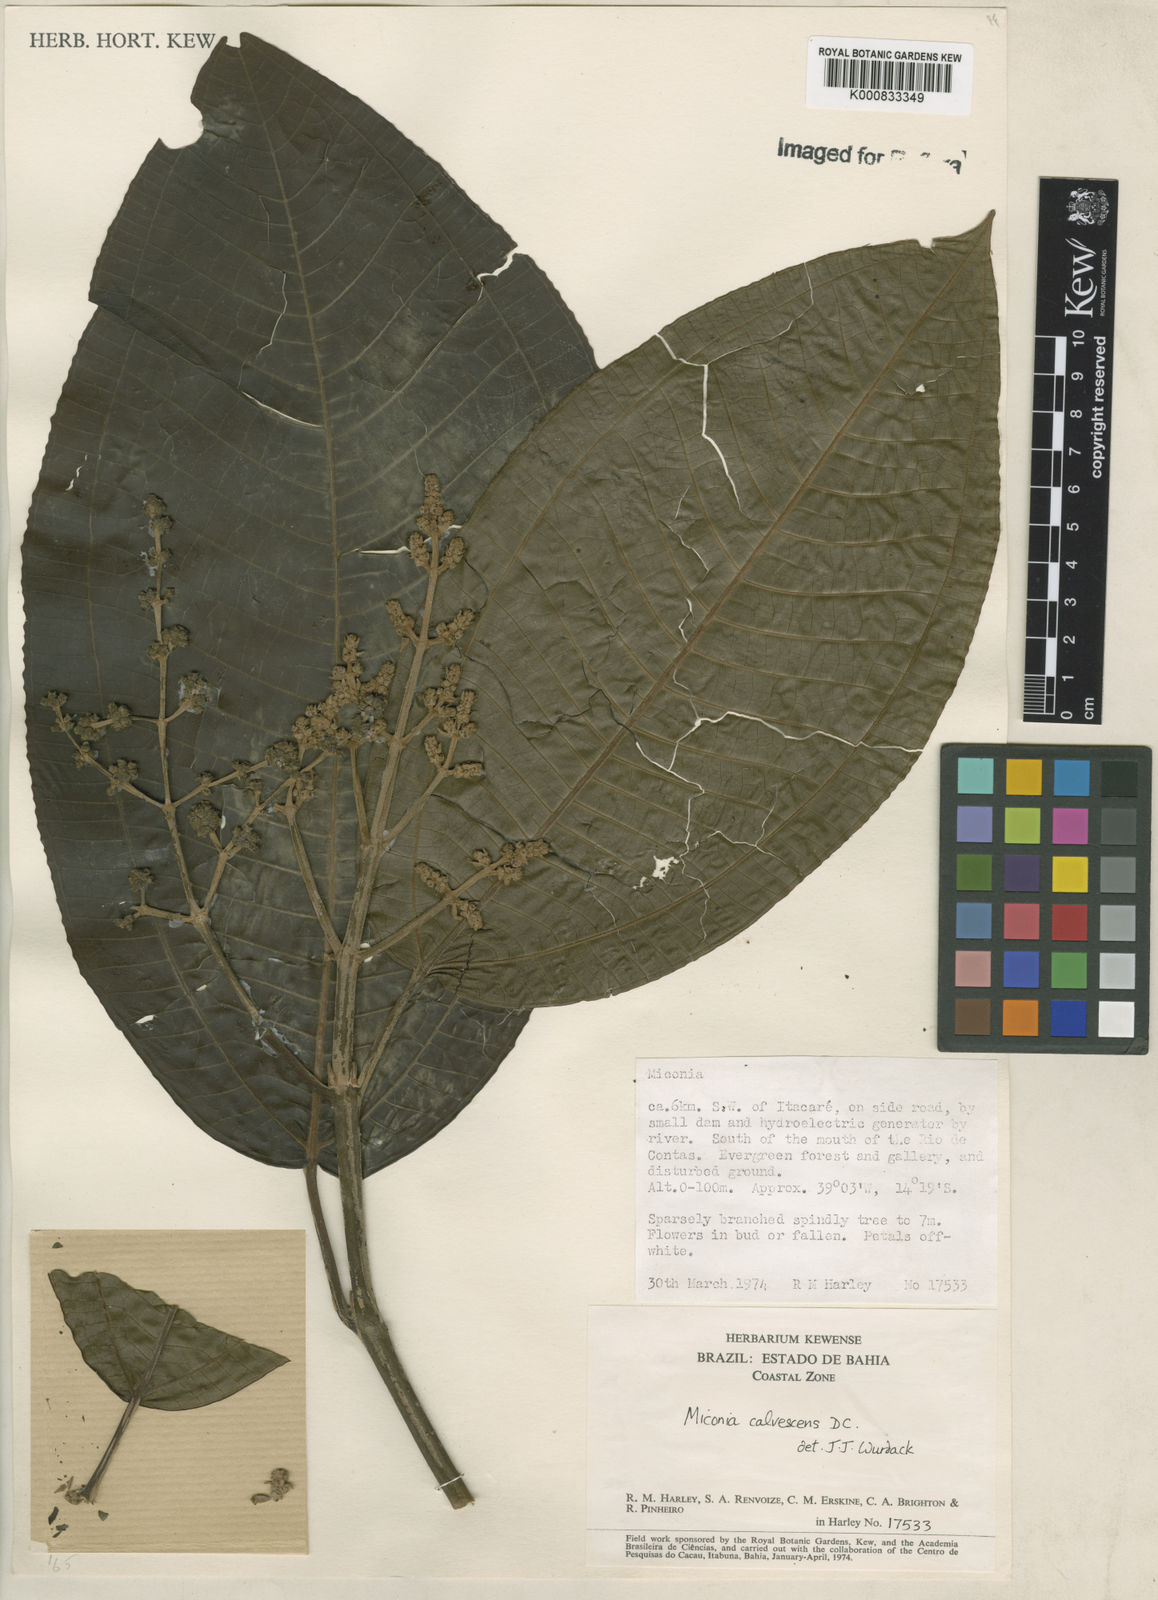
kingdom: Plantae
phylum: Tracheophyta
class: Magnoliopsida
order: Myrtales
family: Melastomataceae
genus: Miconia
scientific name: Miconia calvescens
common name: Purple plague
